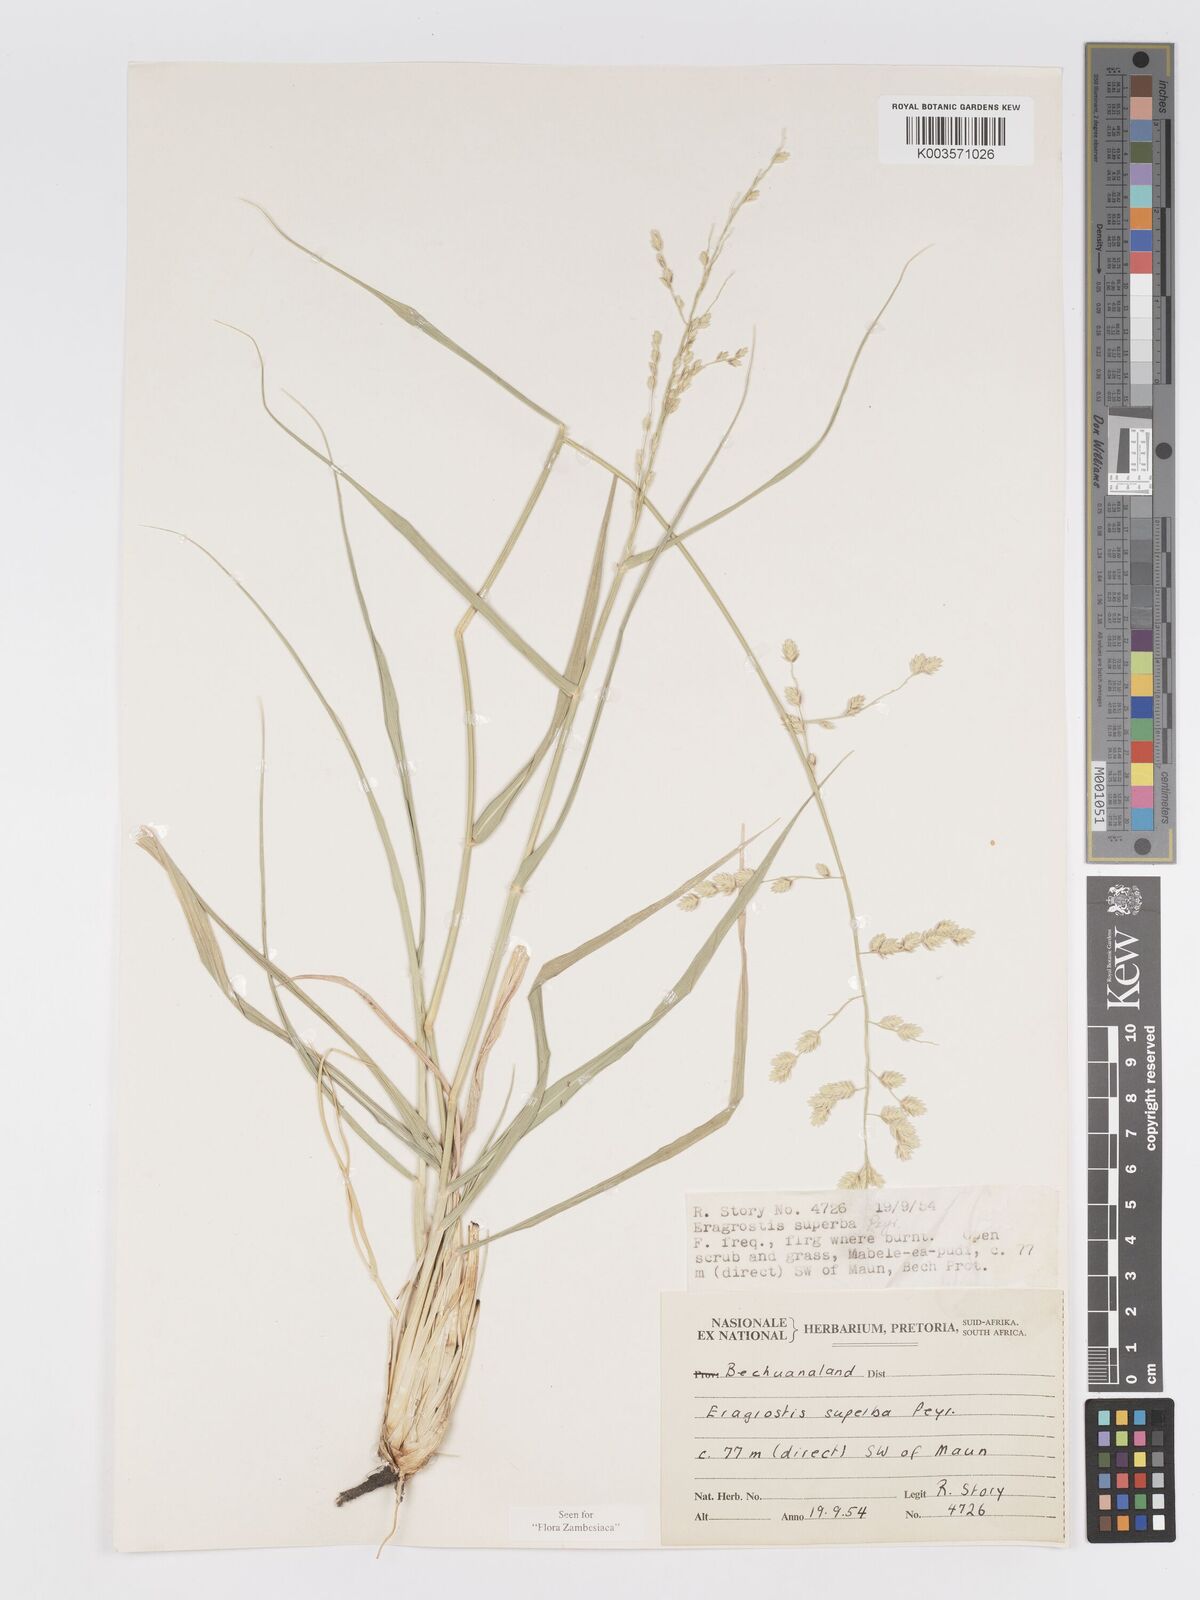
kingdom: Plantae
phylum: Tracheophyta
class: Liliopsida
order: Poales
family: Poaceae
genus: Eragrostis
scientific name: Eragrostis superba
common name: Wilman lovegrass
